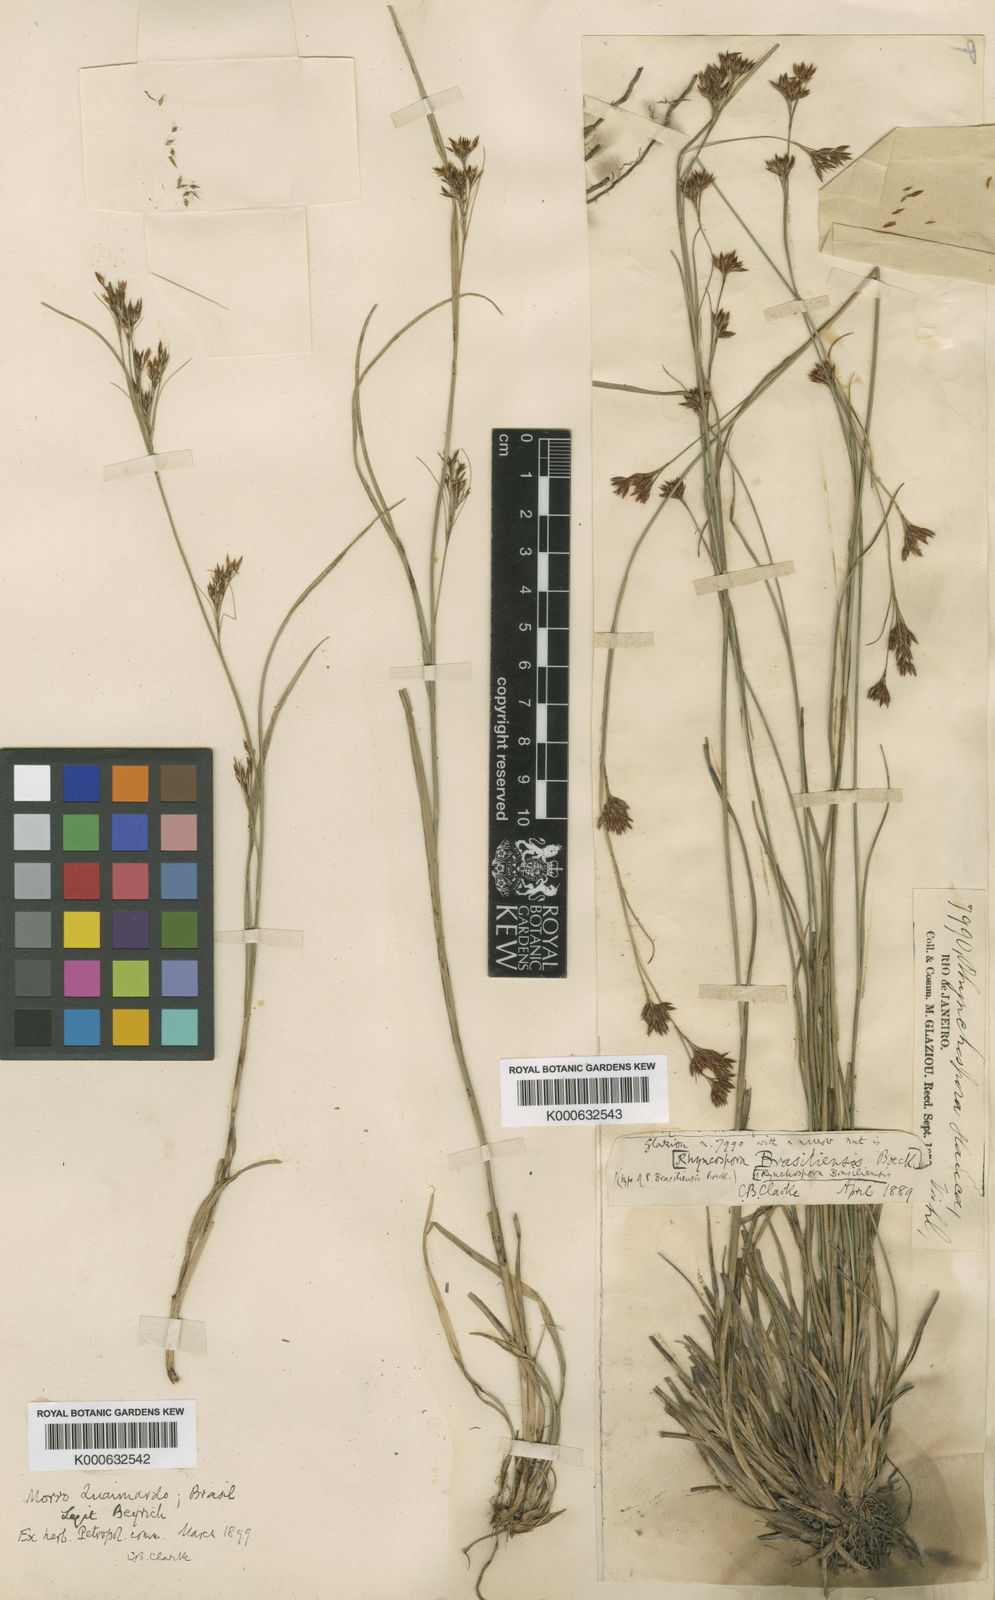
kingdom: Plantae
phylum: Tracheophyta
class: Liliopsida
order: Poales
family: Cyperaceae
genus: Rhynchospora
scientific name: Rhynchospora brasiliensis
